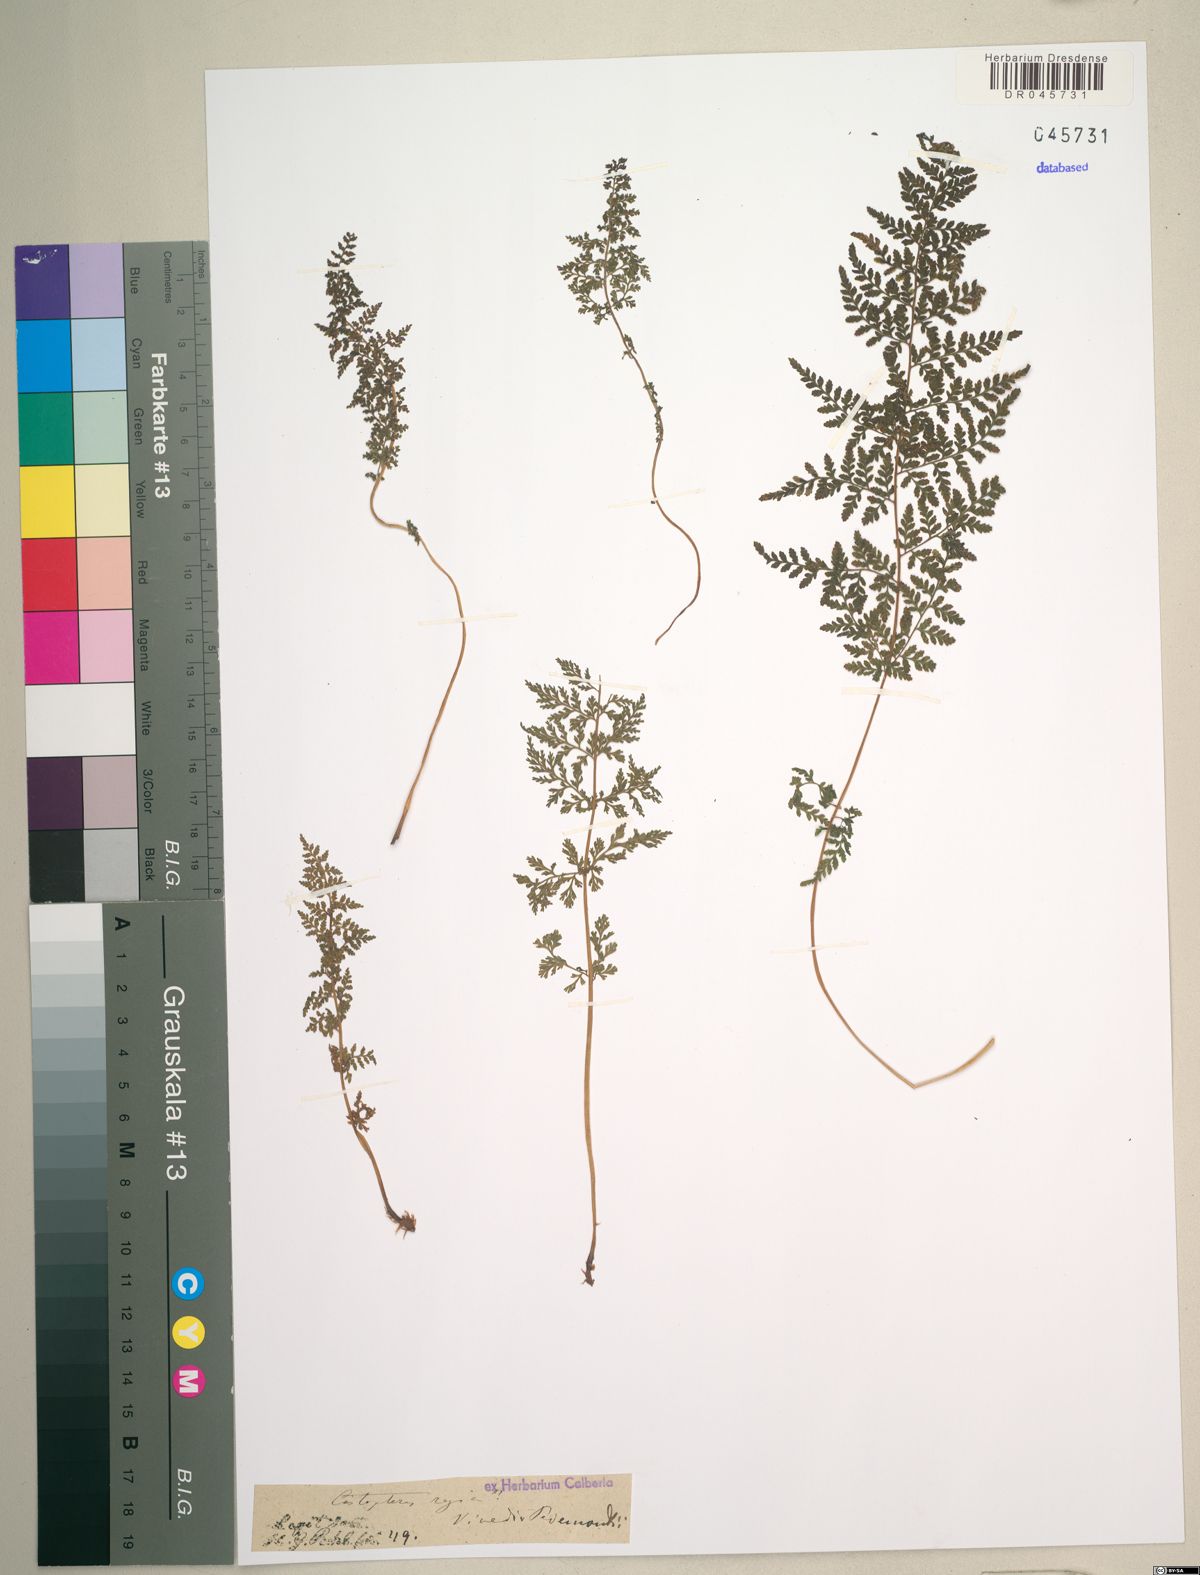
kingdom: Plantae
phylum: Tracheophyta
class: Polypodiopsida
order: Polypodiales
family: Cystopteridaceae
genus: Cystopteris
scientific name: Cystopteris fragilis
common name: Brittle bladder fern
